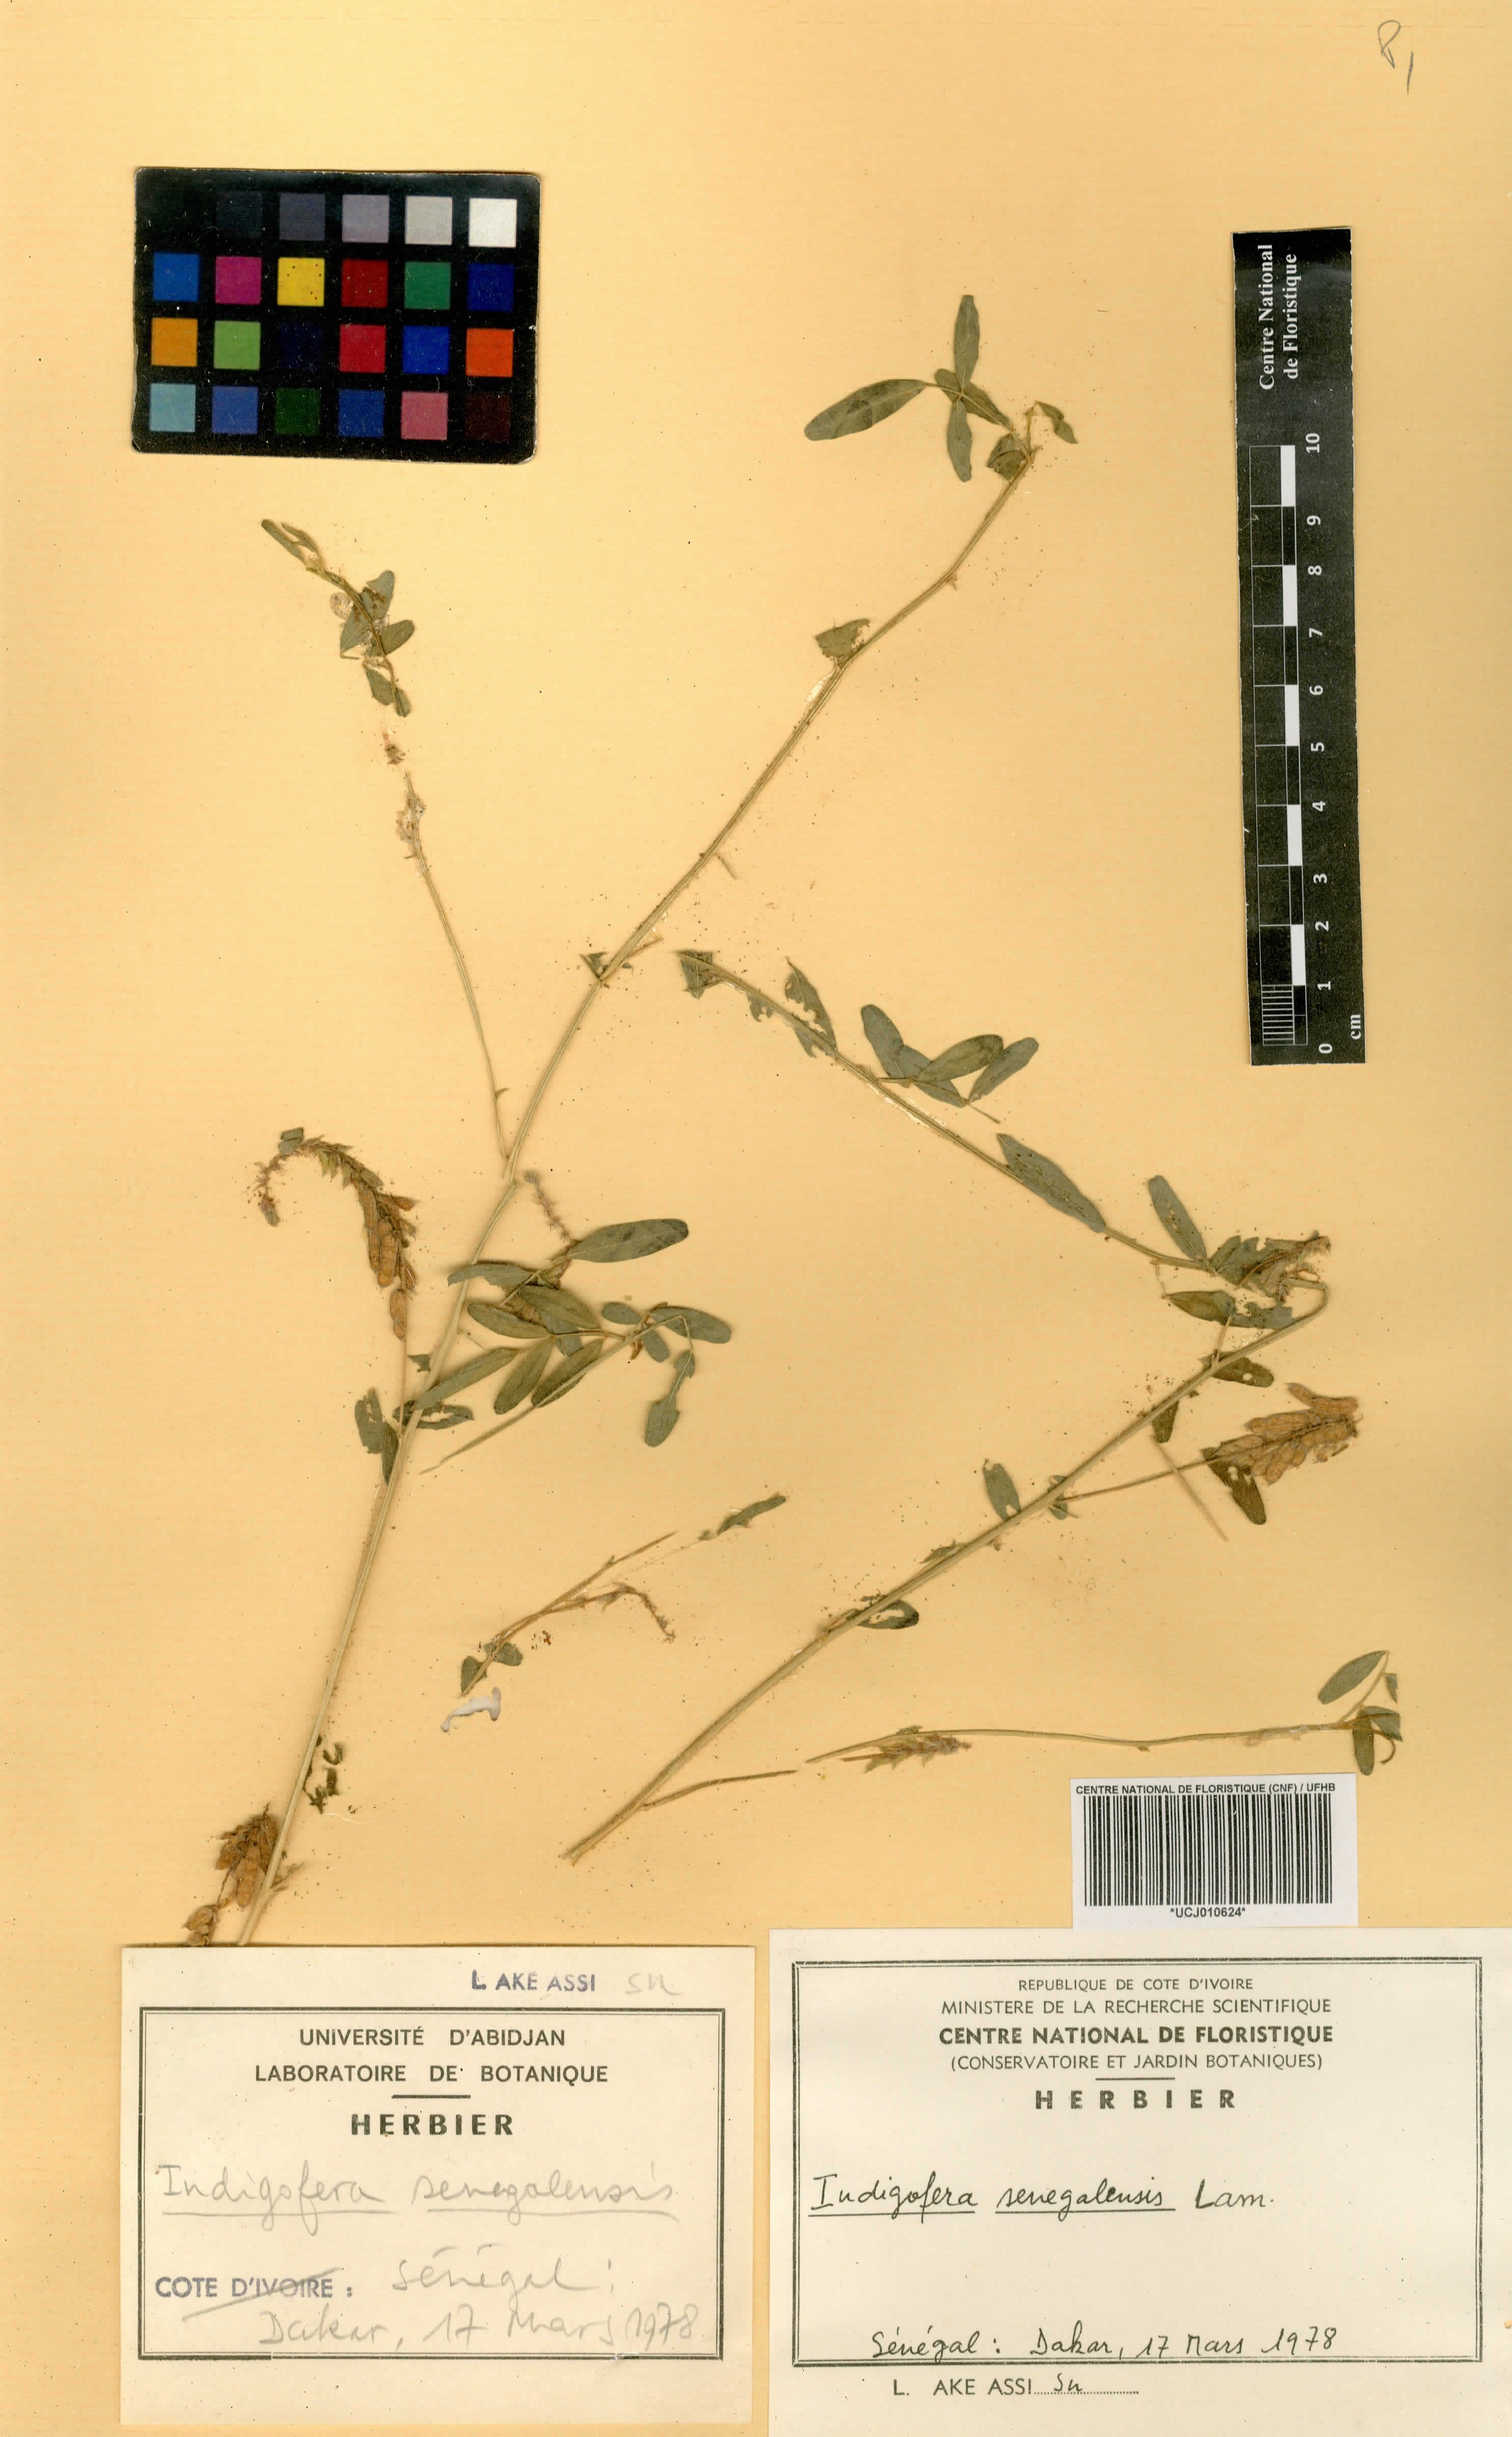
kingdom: Plantae
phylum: Tracheophyta
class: Magnoliopsida
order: Fabales
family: Fabaceae
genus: Indigofera
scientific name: Indigofera suffruticosa
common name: Anil de pasto
